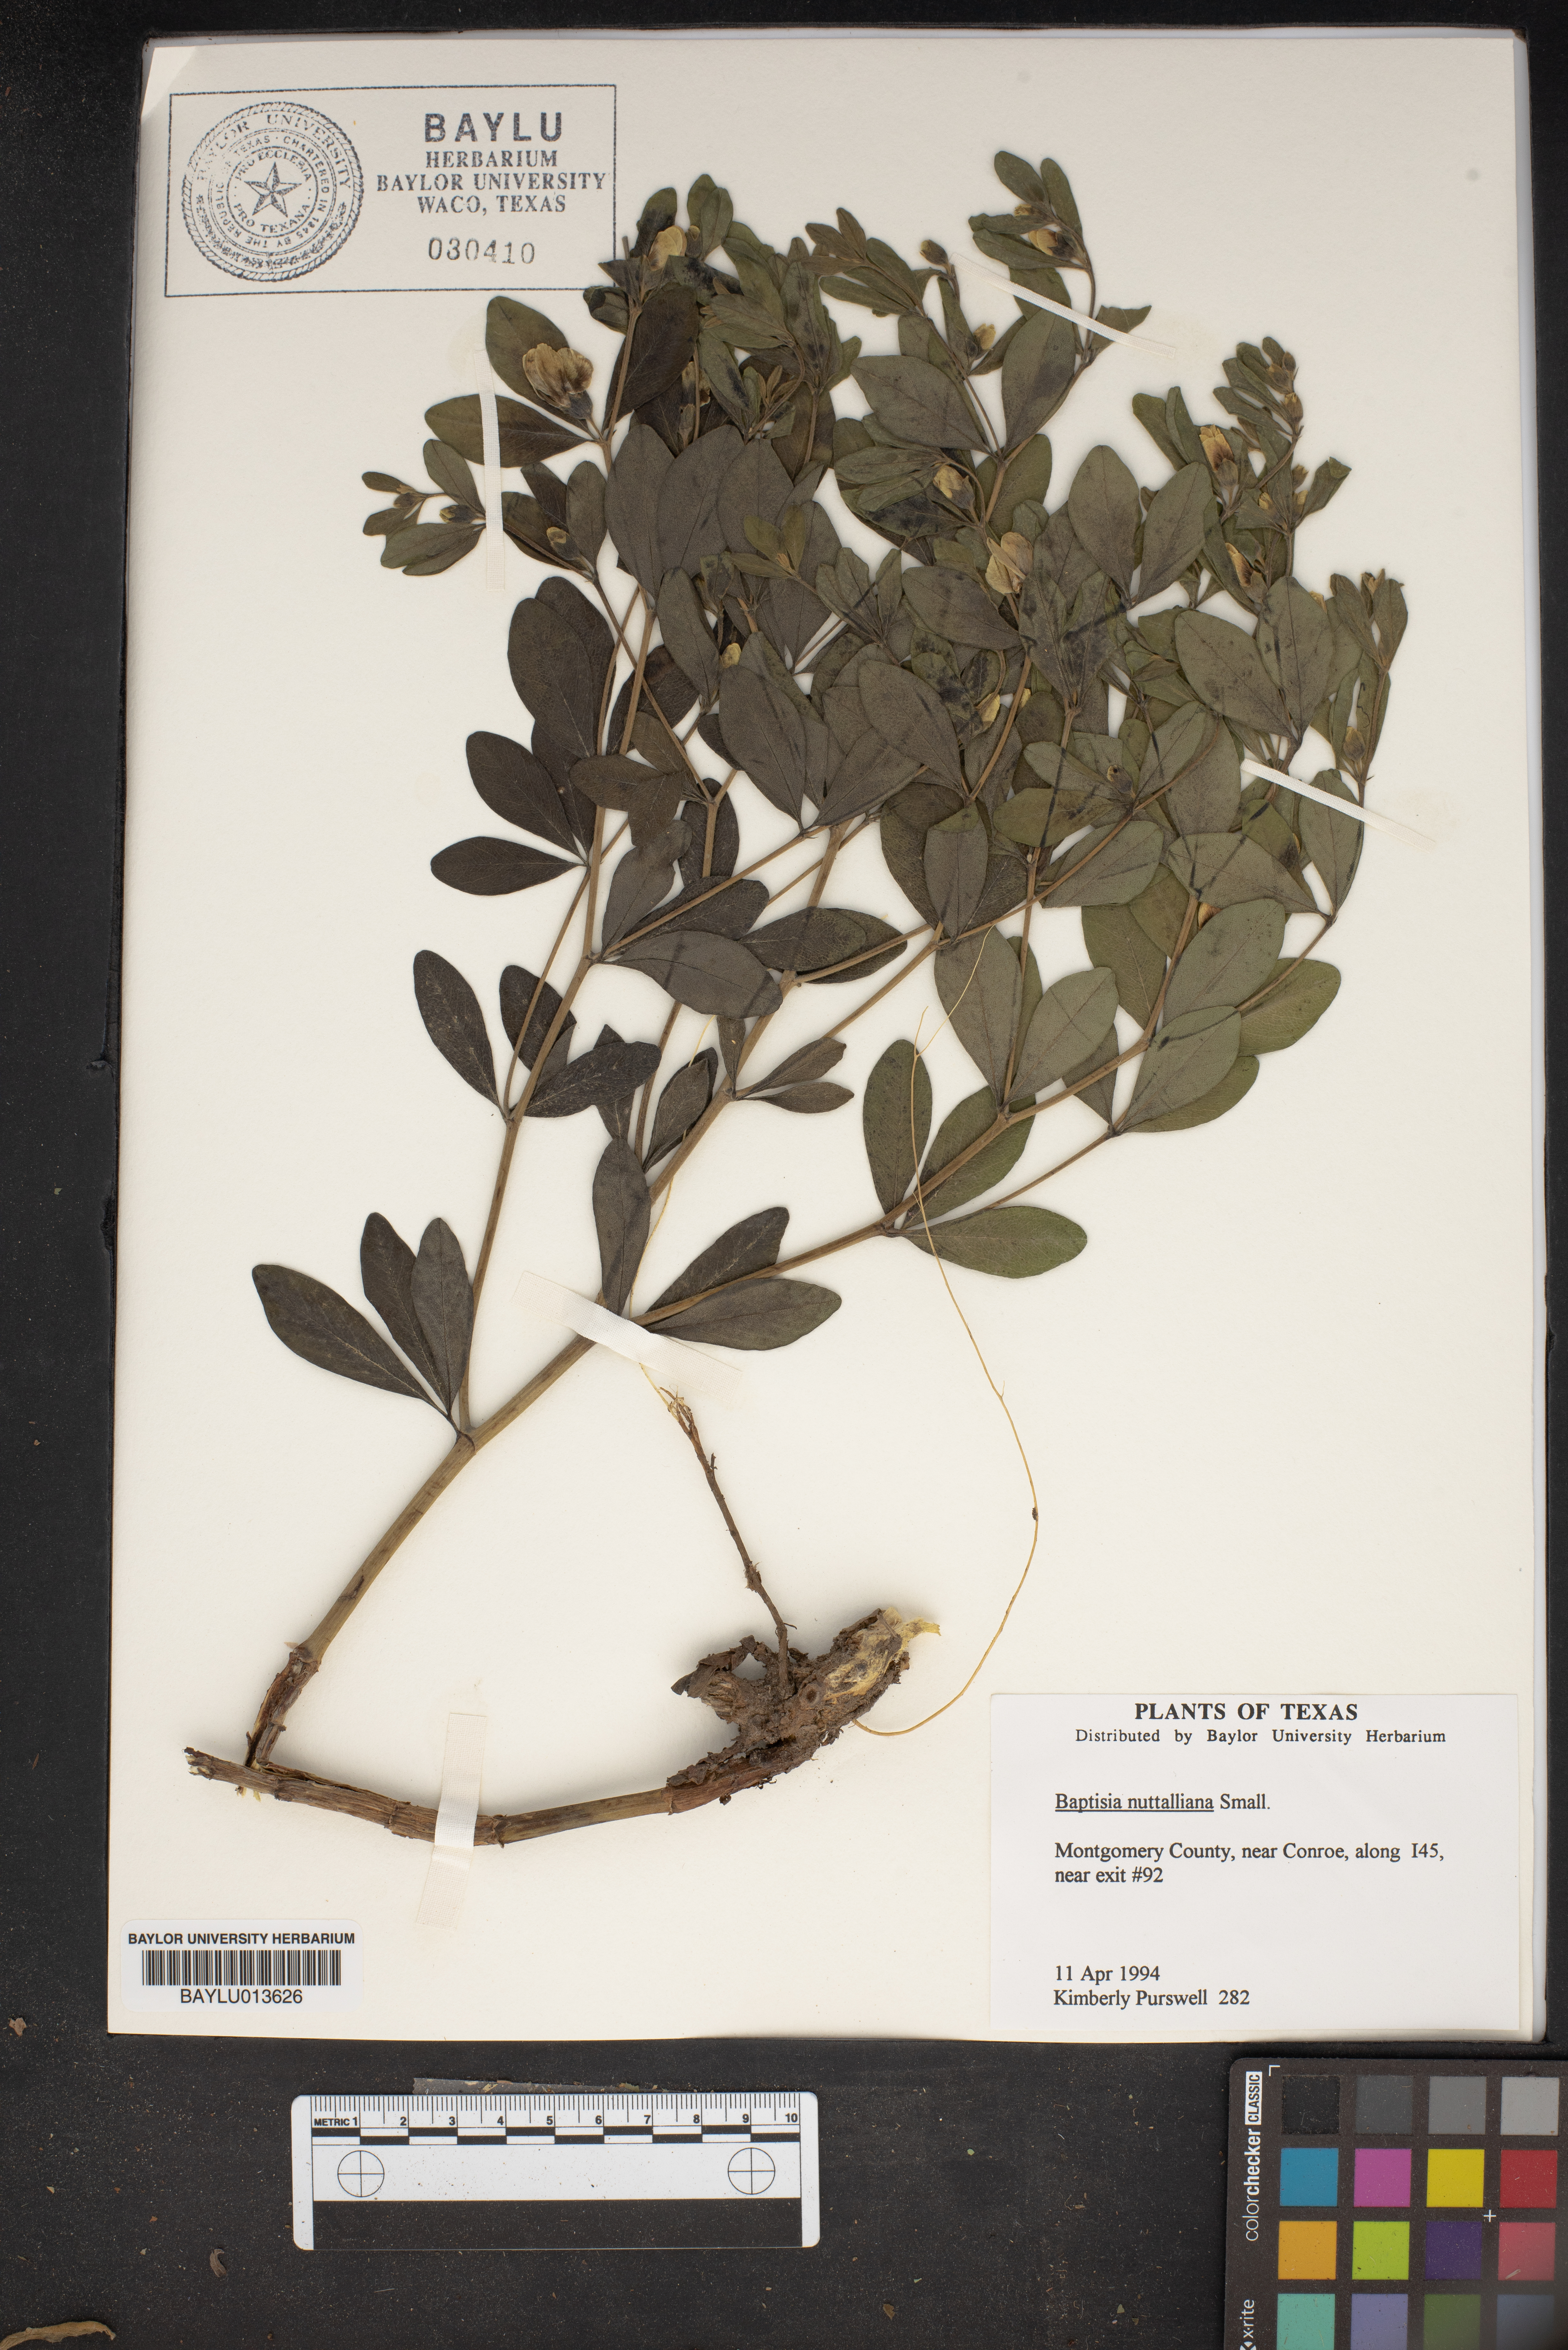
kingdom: Plantae
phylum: Tracheophyta
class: Magnoliopsida
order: Fabales
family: Fabaceae
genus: Baptisia
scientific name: Baptisia nuttalliana
